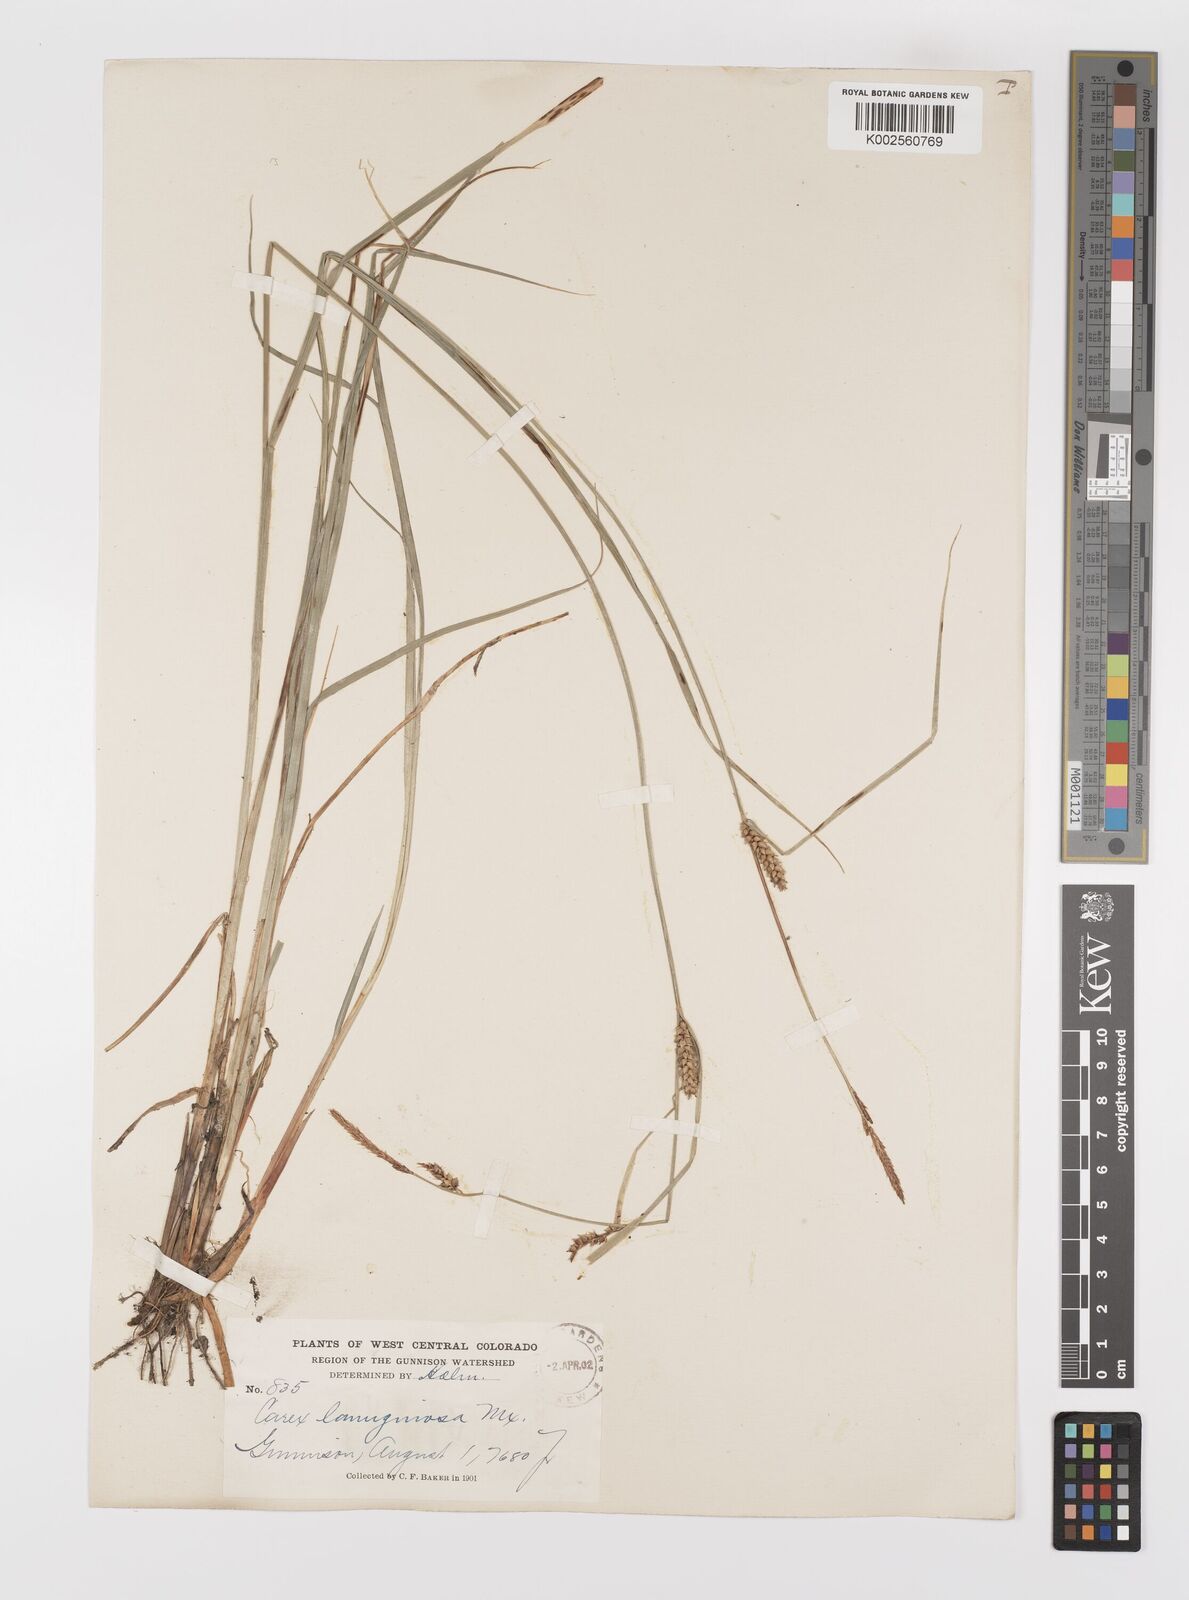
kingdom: Plantae
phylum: Tracheophyta
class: Liliopsida
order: Poales
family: Cyperaceae
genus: Carex
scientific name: Carex lasiocarpa
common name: Slender sedge
